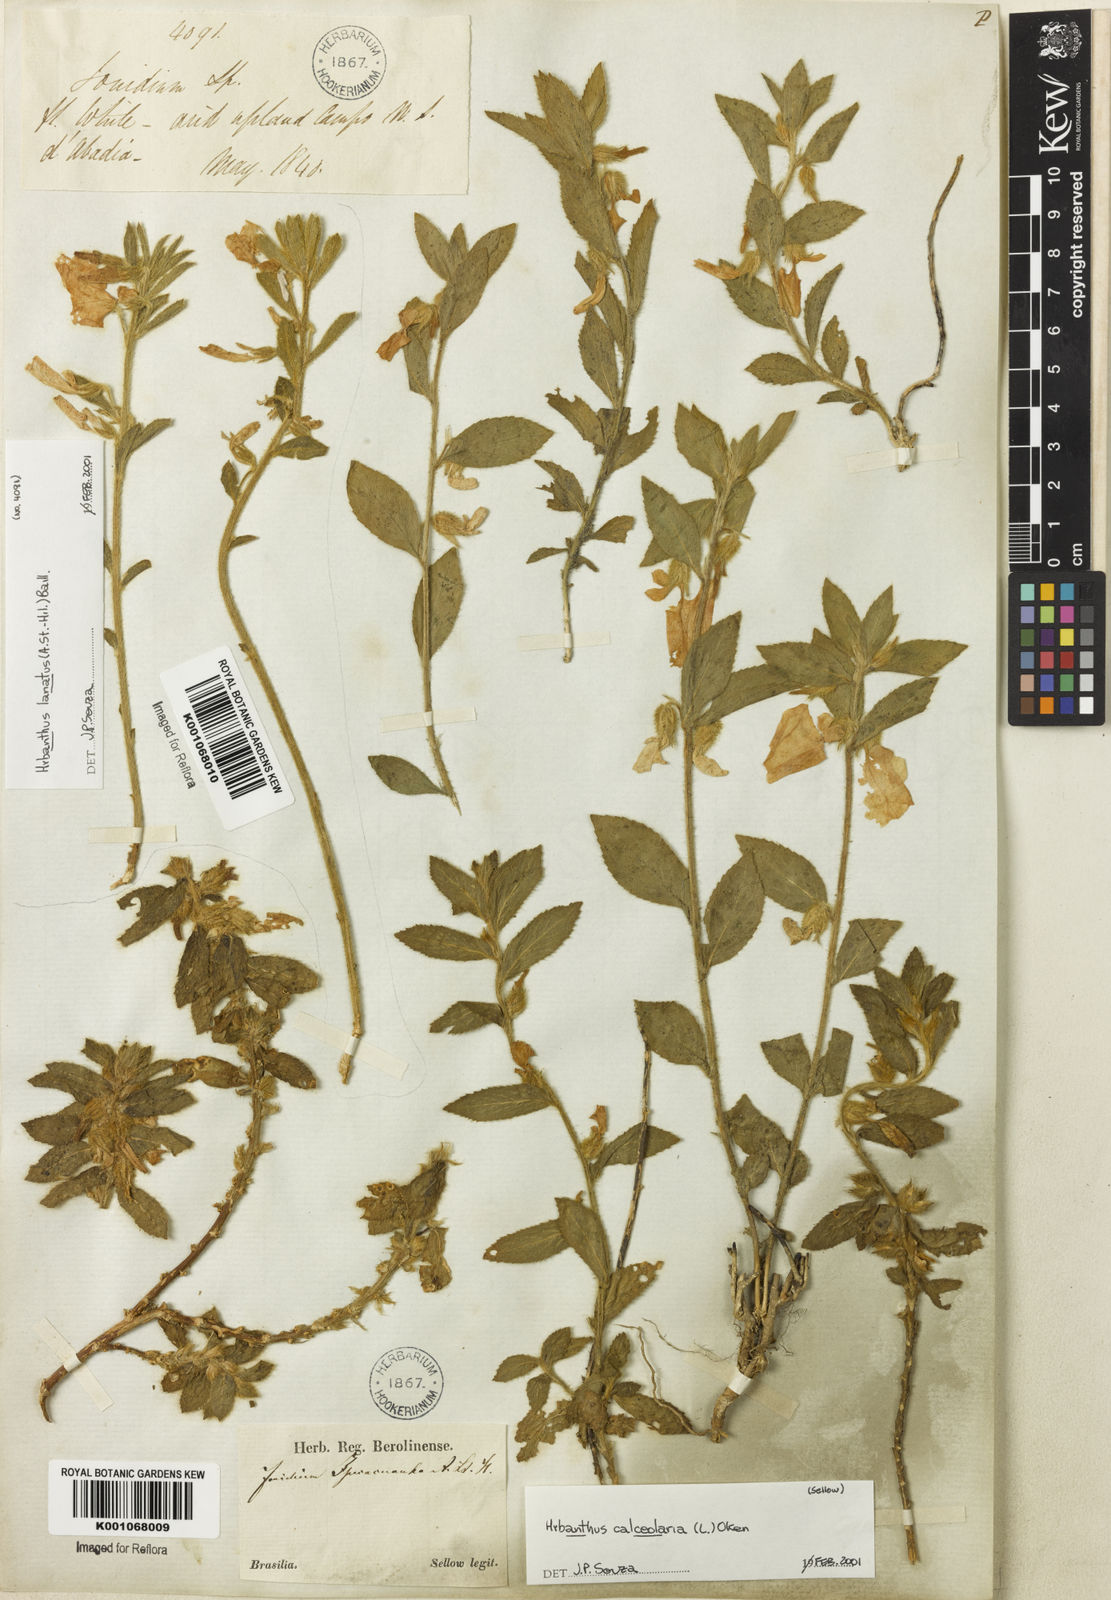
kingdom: Plantae
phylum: Tracheophyta
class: Magnoliopsida
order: Malpighiales
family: Violaceae
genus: Hybanthus
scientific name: Hybanthus
